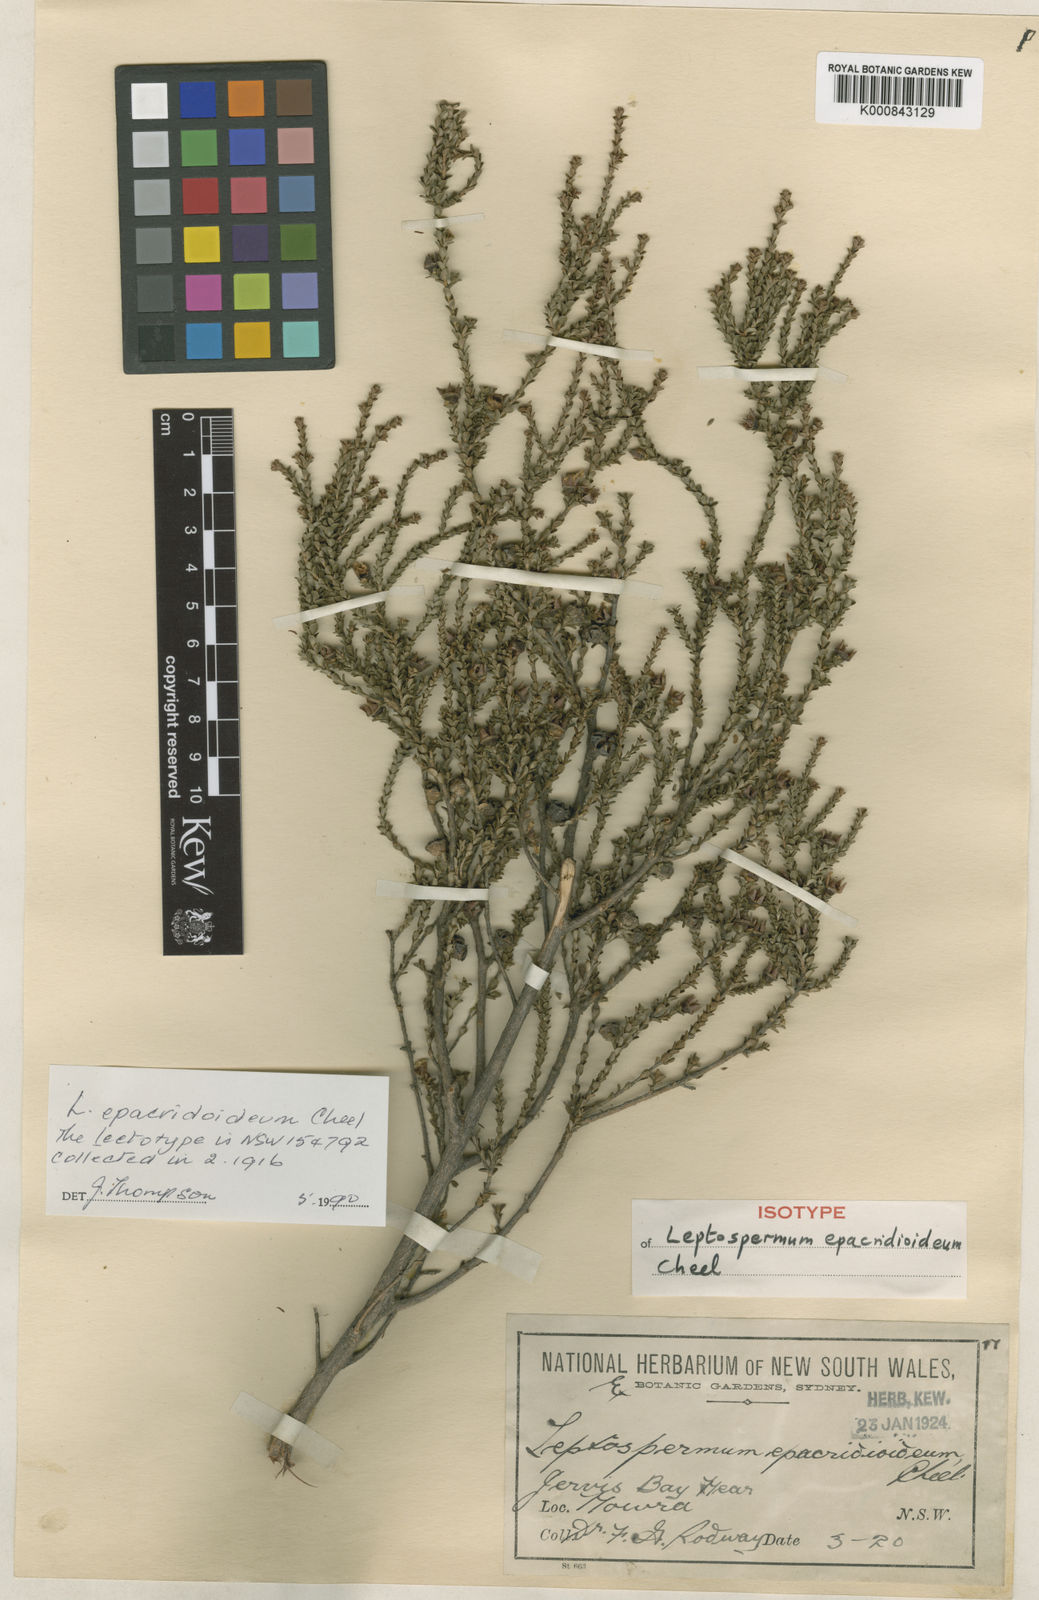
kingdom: Plantae
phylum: Tracheophyta
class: Magnoliopsida
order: Myrtales
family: Myrtaceae
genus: Leptospermum
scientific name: Leptospermum epacridoideum
